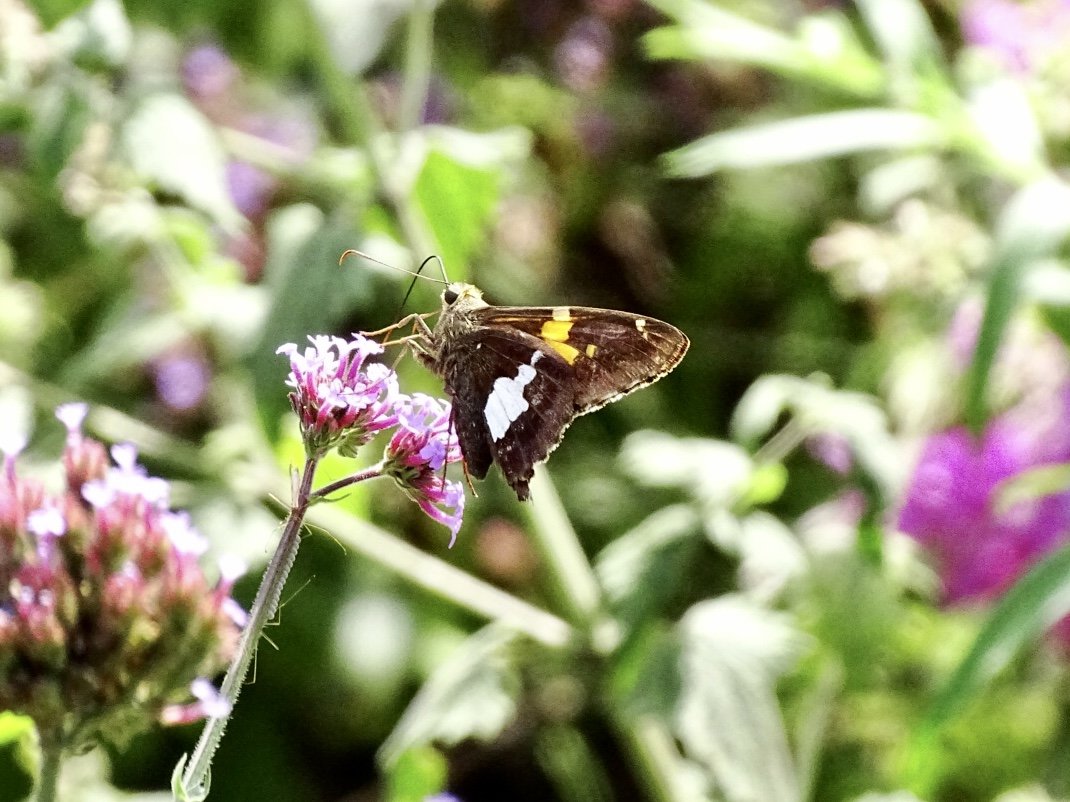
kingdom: Animalia
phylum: Arthropoda
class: Insecta
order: Lepidoptera
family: Hesperiidae
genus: Epargyreus
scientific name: Epargyreus clarus
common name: Silver-spotted Skipper
